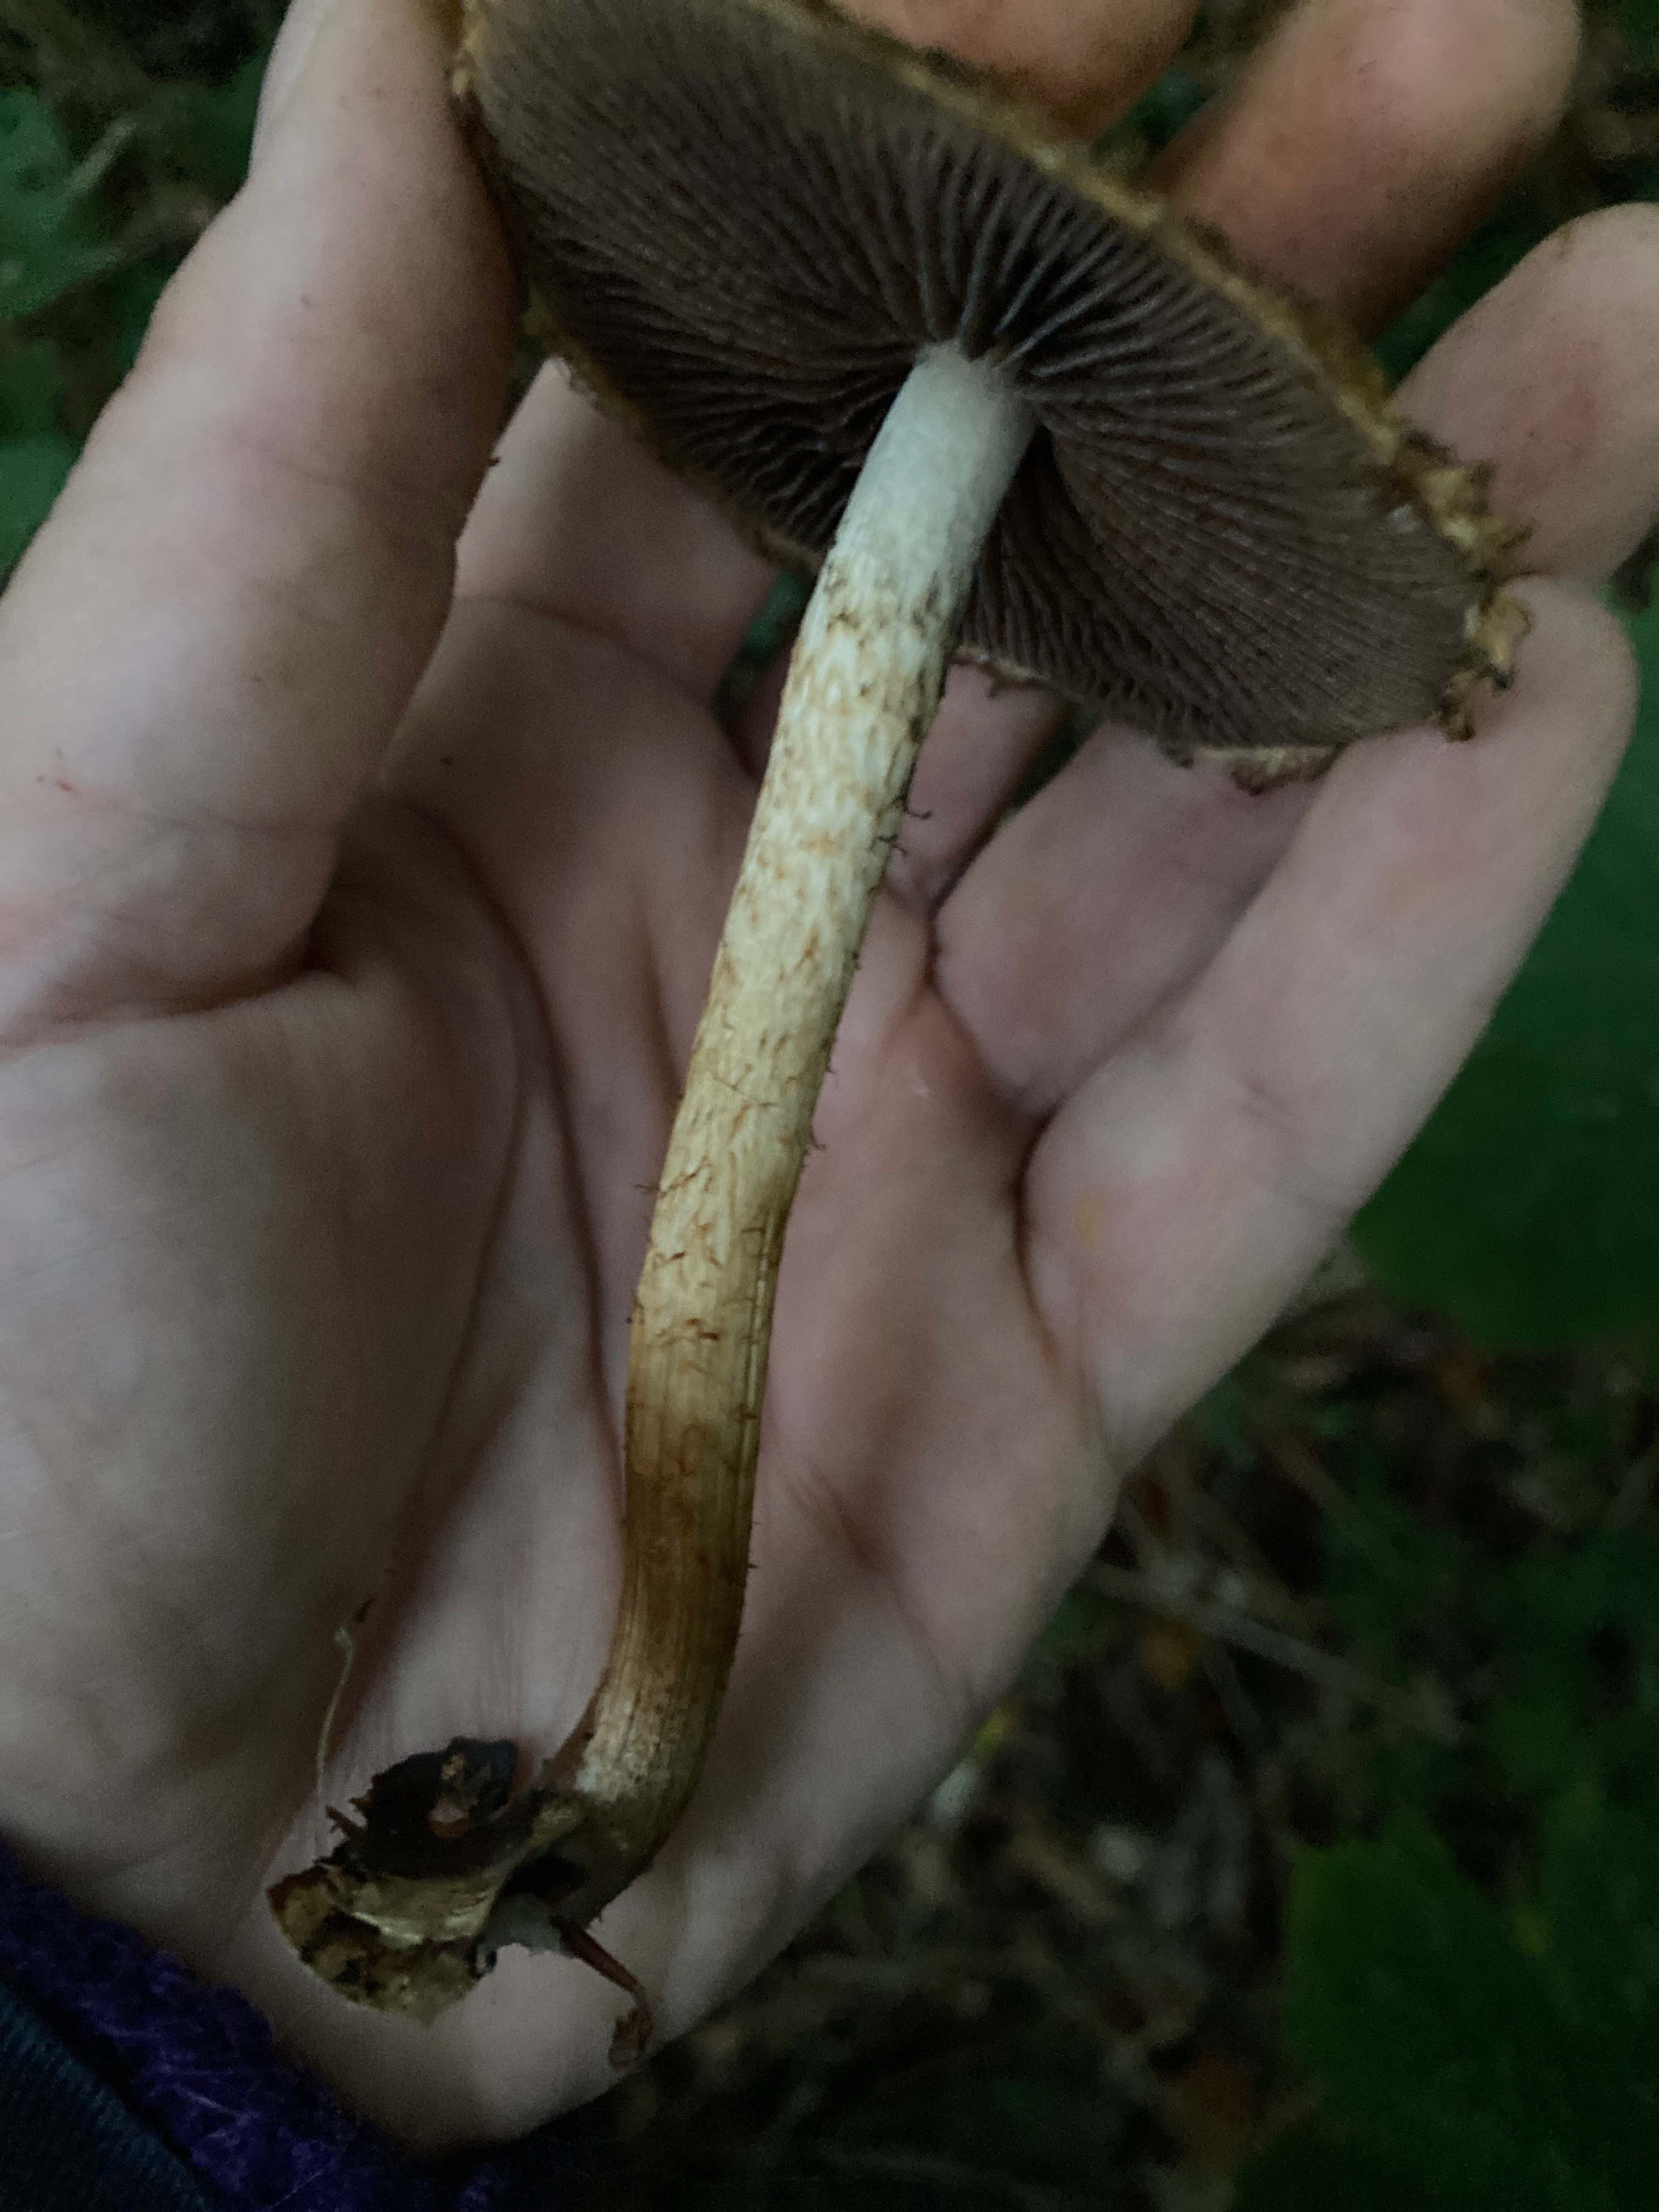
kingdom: Fungi
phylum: Basidiomycota
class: Agaricomycetes
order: Agaricales
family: Psathyrellaceae
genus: Lacrymaria
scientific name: Lacrymaria lacrymabunda
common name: grædende mørkhat
